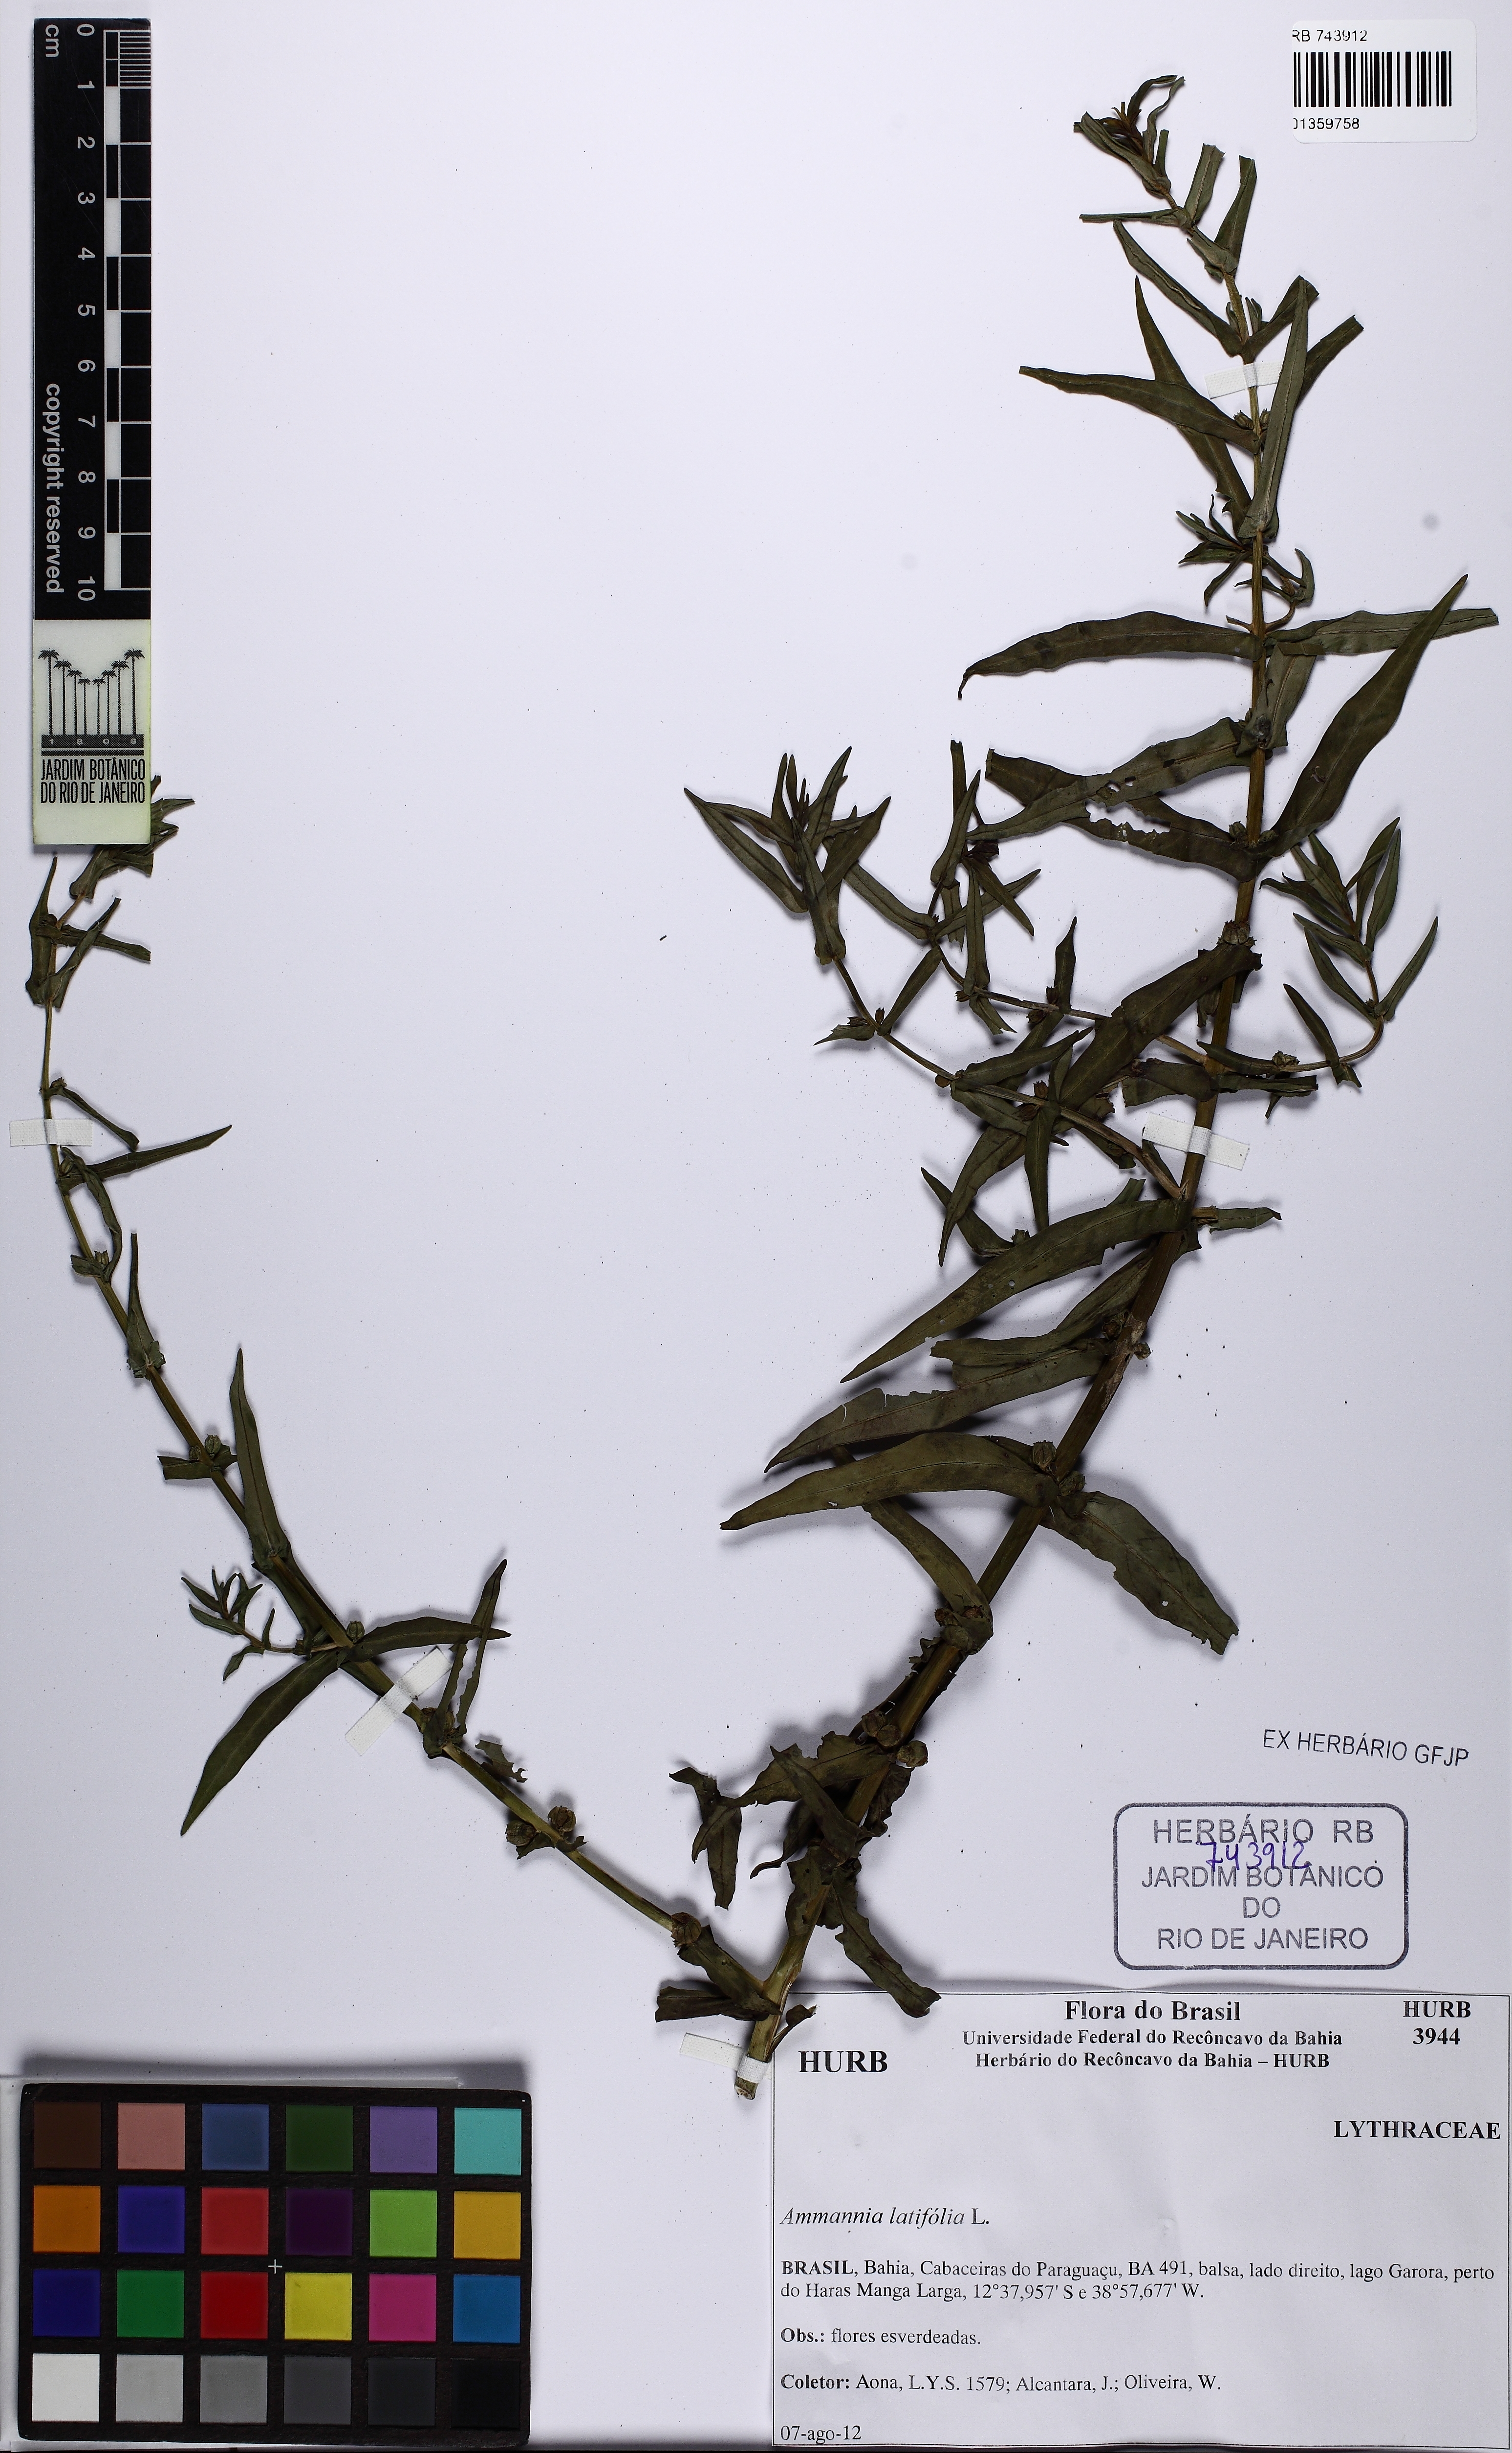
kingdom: Plantae
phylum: Tracheophyta
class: Magnoliopsida
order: Myrtales
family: Lythraceae
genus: Ammannia
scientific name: Ammannia latifolia
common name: Toothcup
